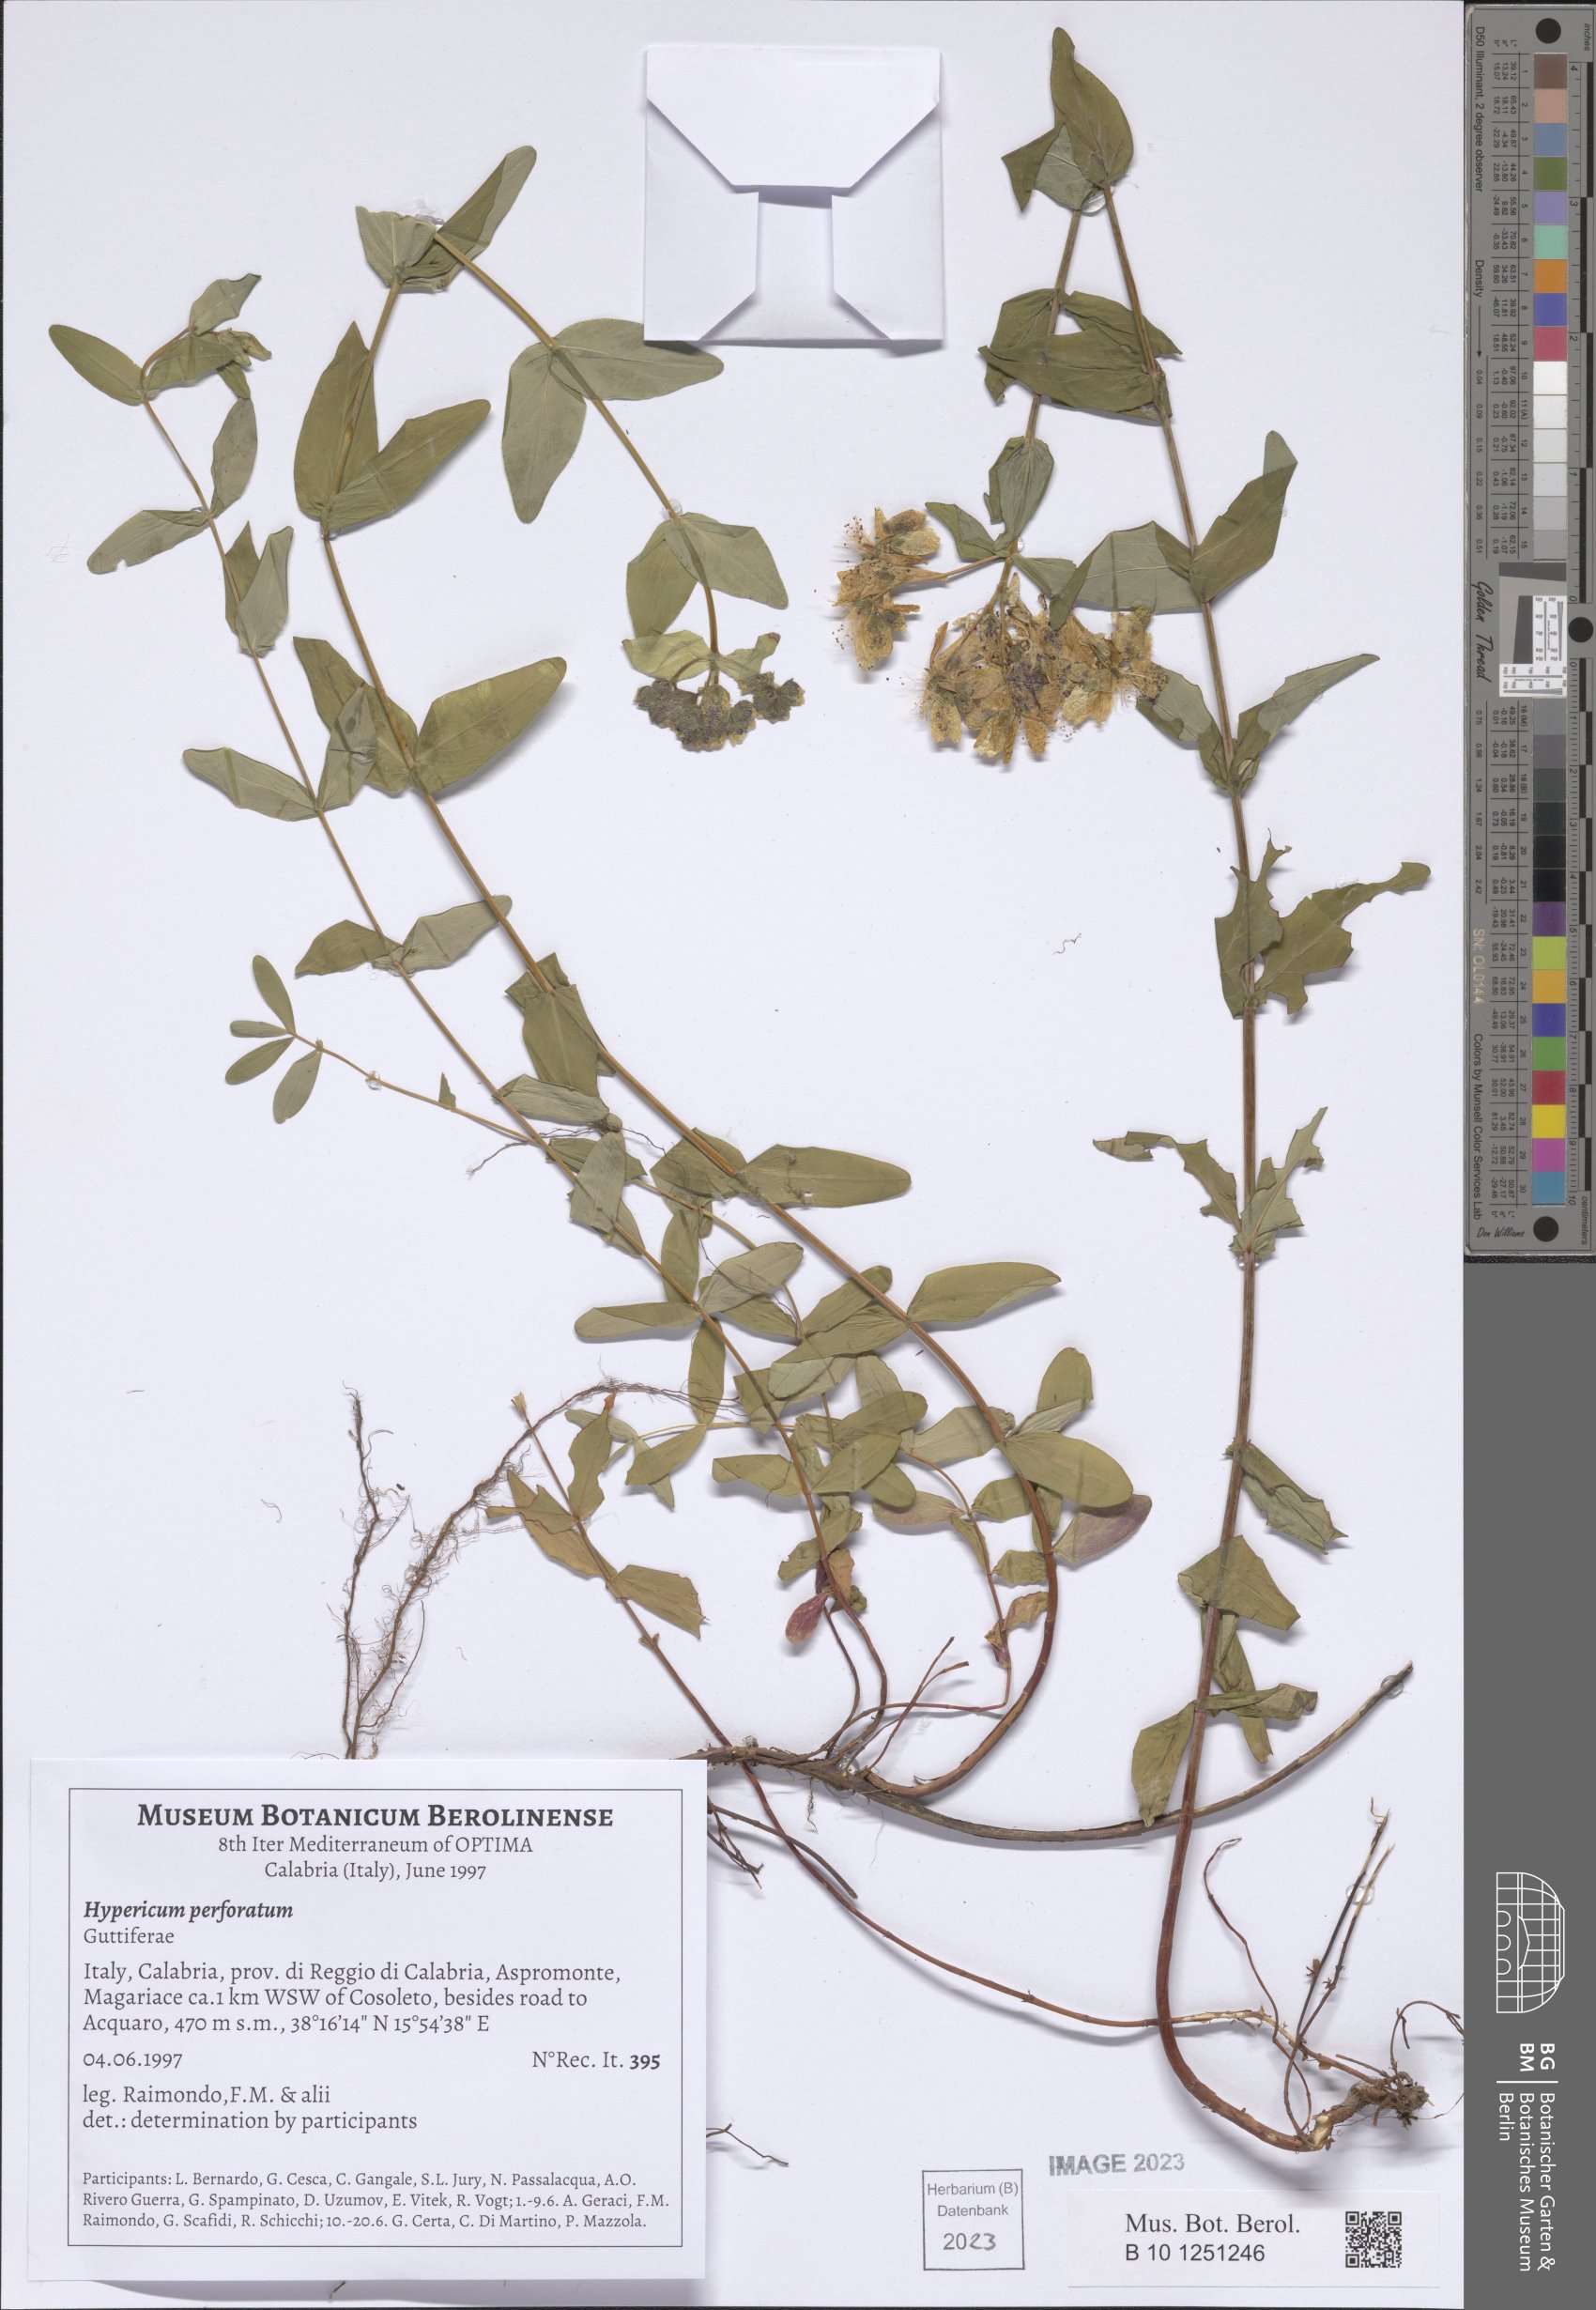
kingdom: Plantae
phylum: Tracheophyta
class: Magnoliopsida
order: Malpighiales
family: Hypericaceae
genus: Hypericum
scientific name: Hypericum perforatum
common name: Common st. johnswort
